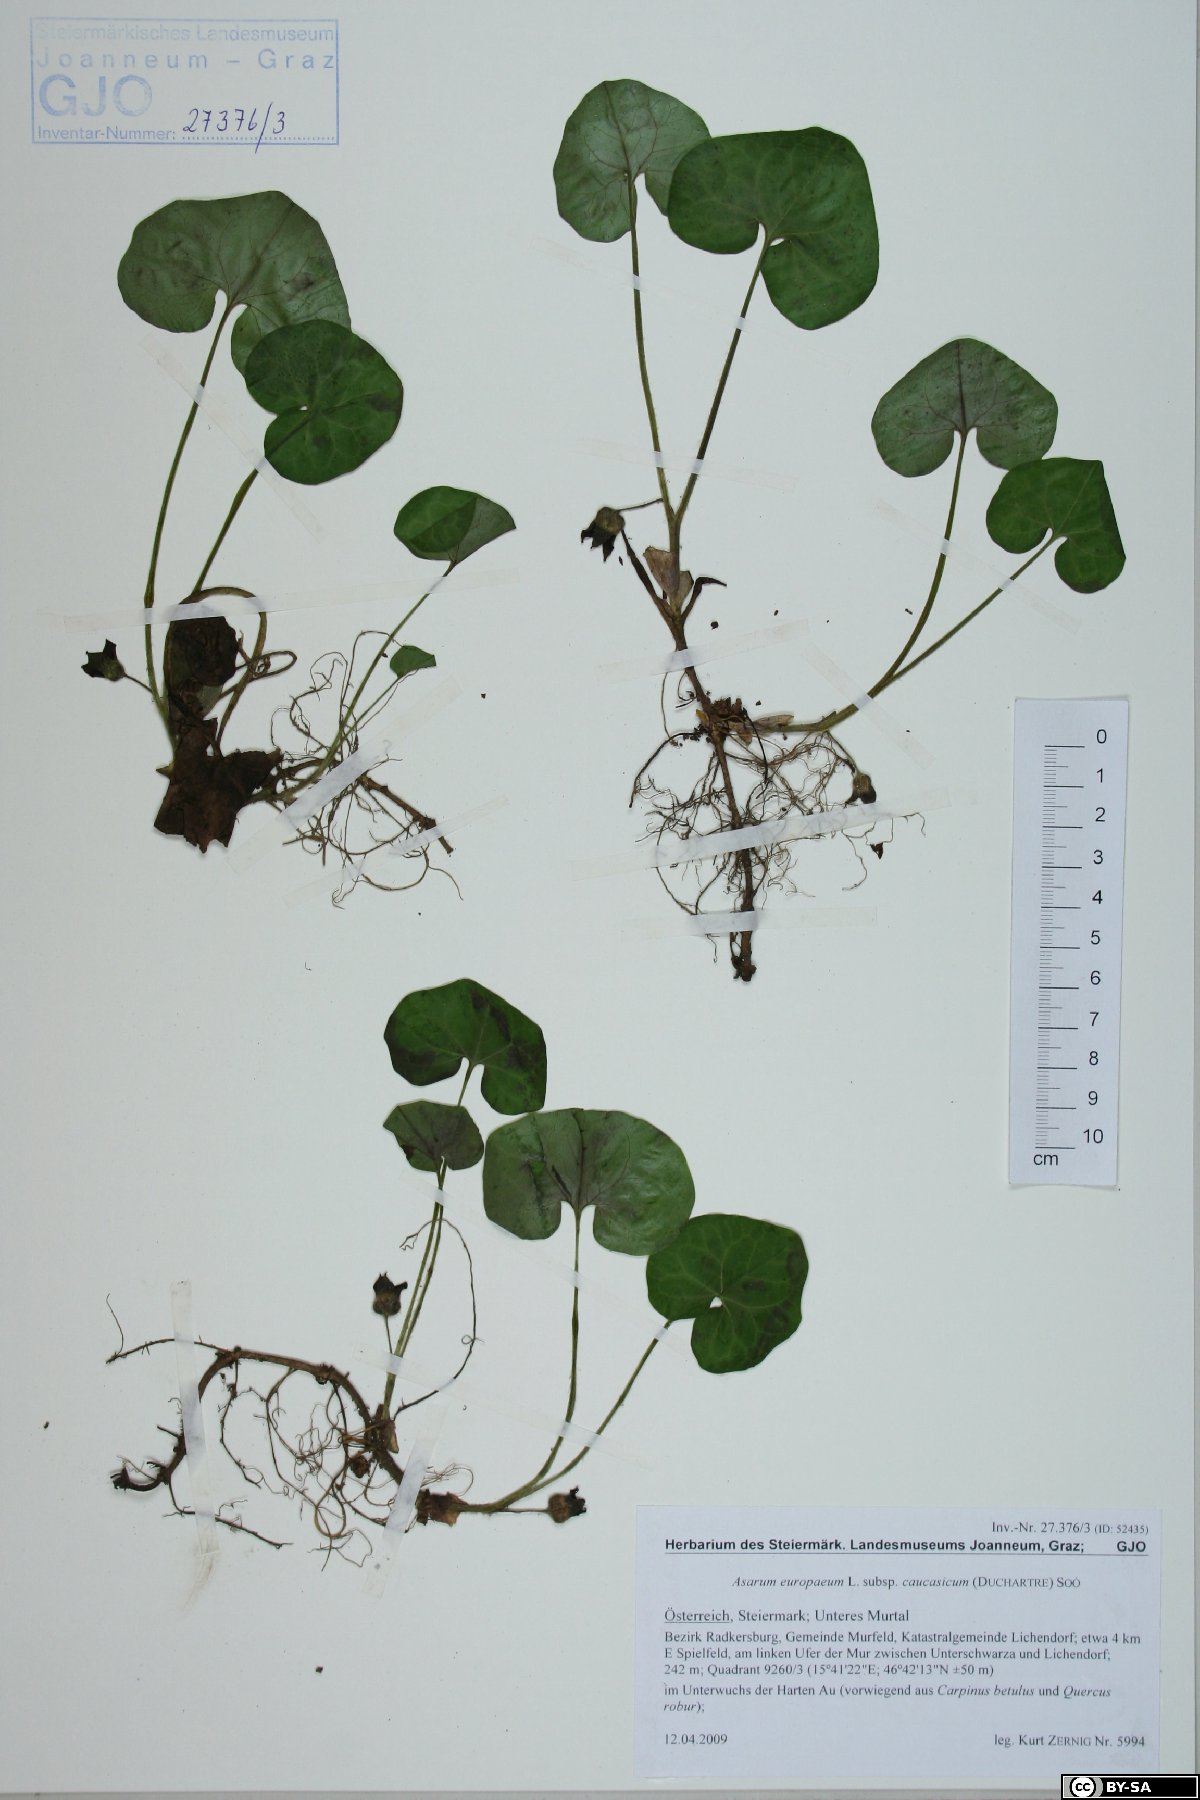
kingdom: Plantae
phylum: Tracheophyta
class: Magnoliopsida
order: Piperales
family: Aristolochiaceae
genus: Asarum
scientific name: Asarum europaeum
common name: Asarabacca
